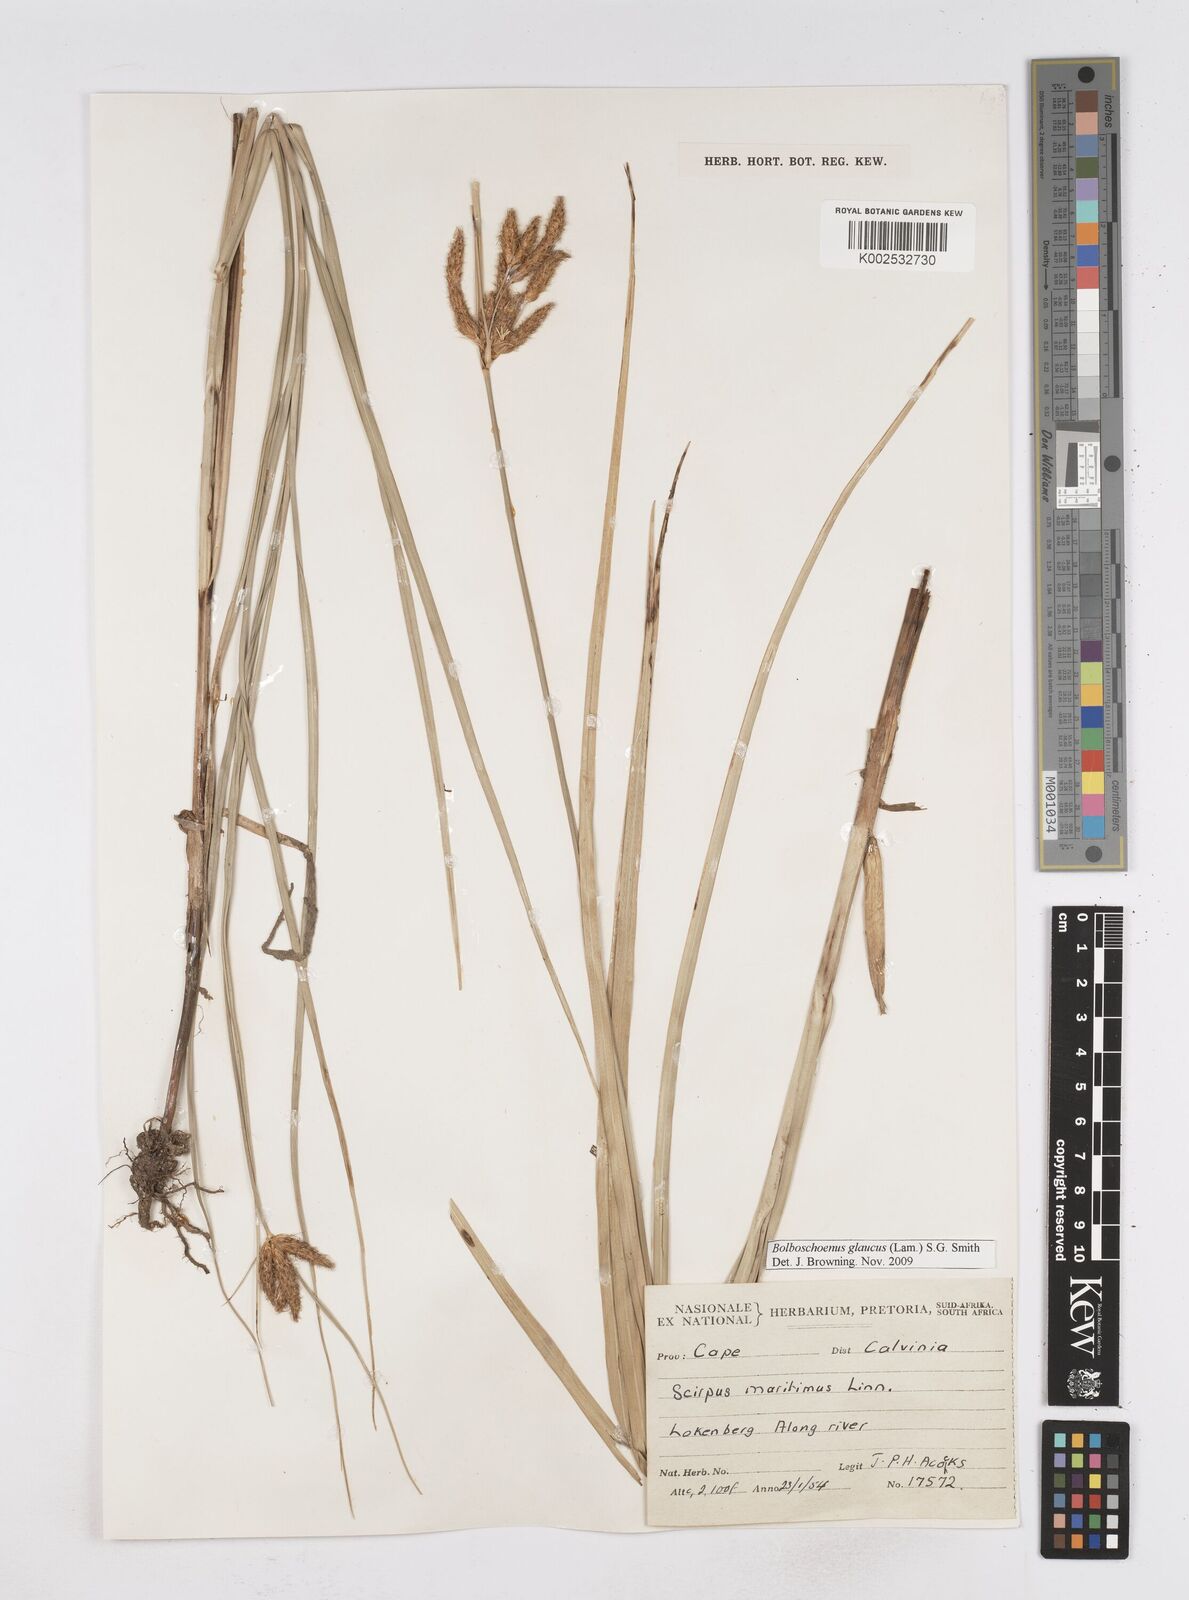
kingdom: Plantae
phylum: Tracheophyta
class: Liliopsida
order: Poales
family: Cyperaceae
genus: Bolboschoenus
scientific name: Bolboschoenus maritimus
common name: Sea club-rush
